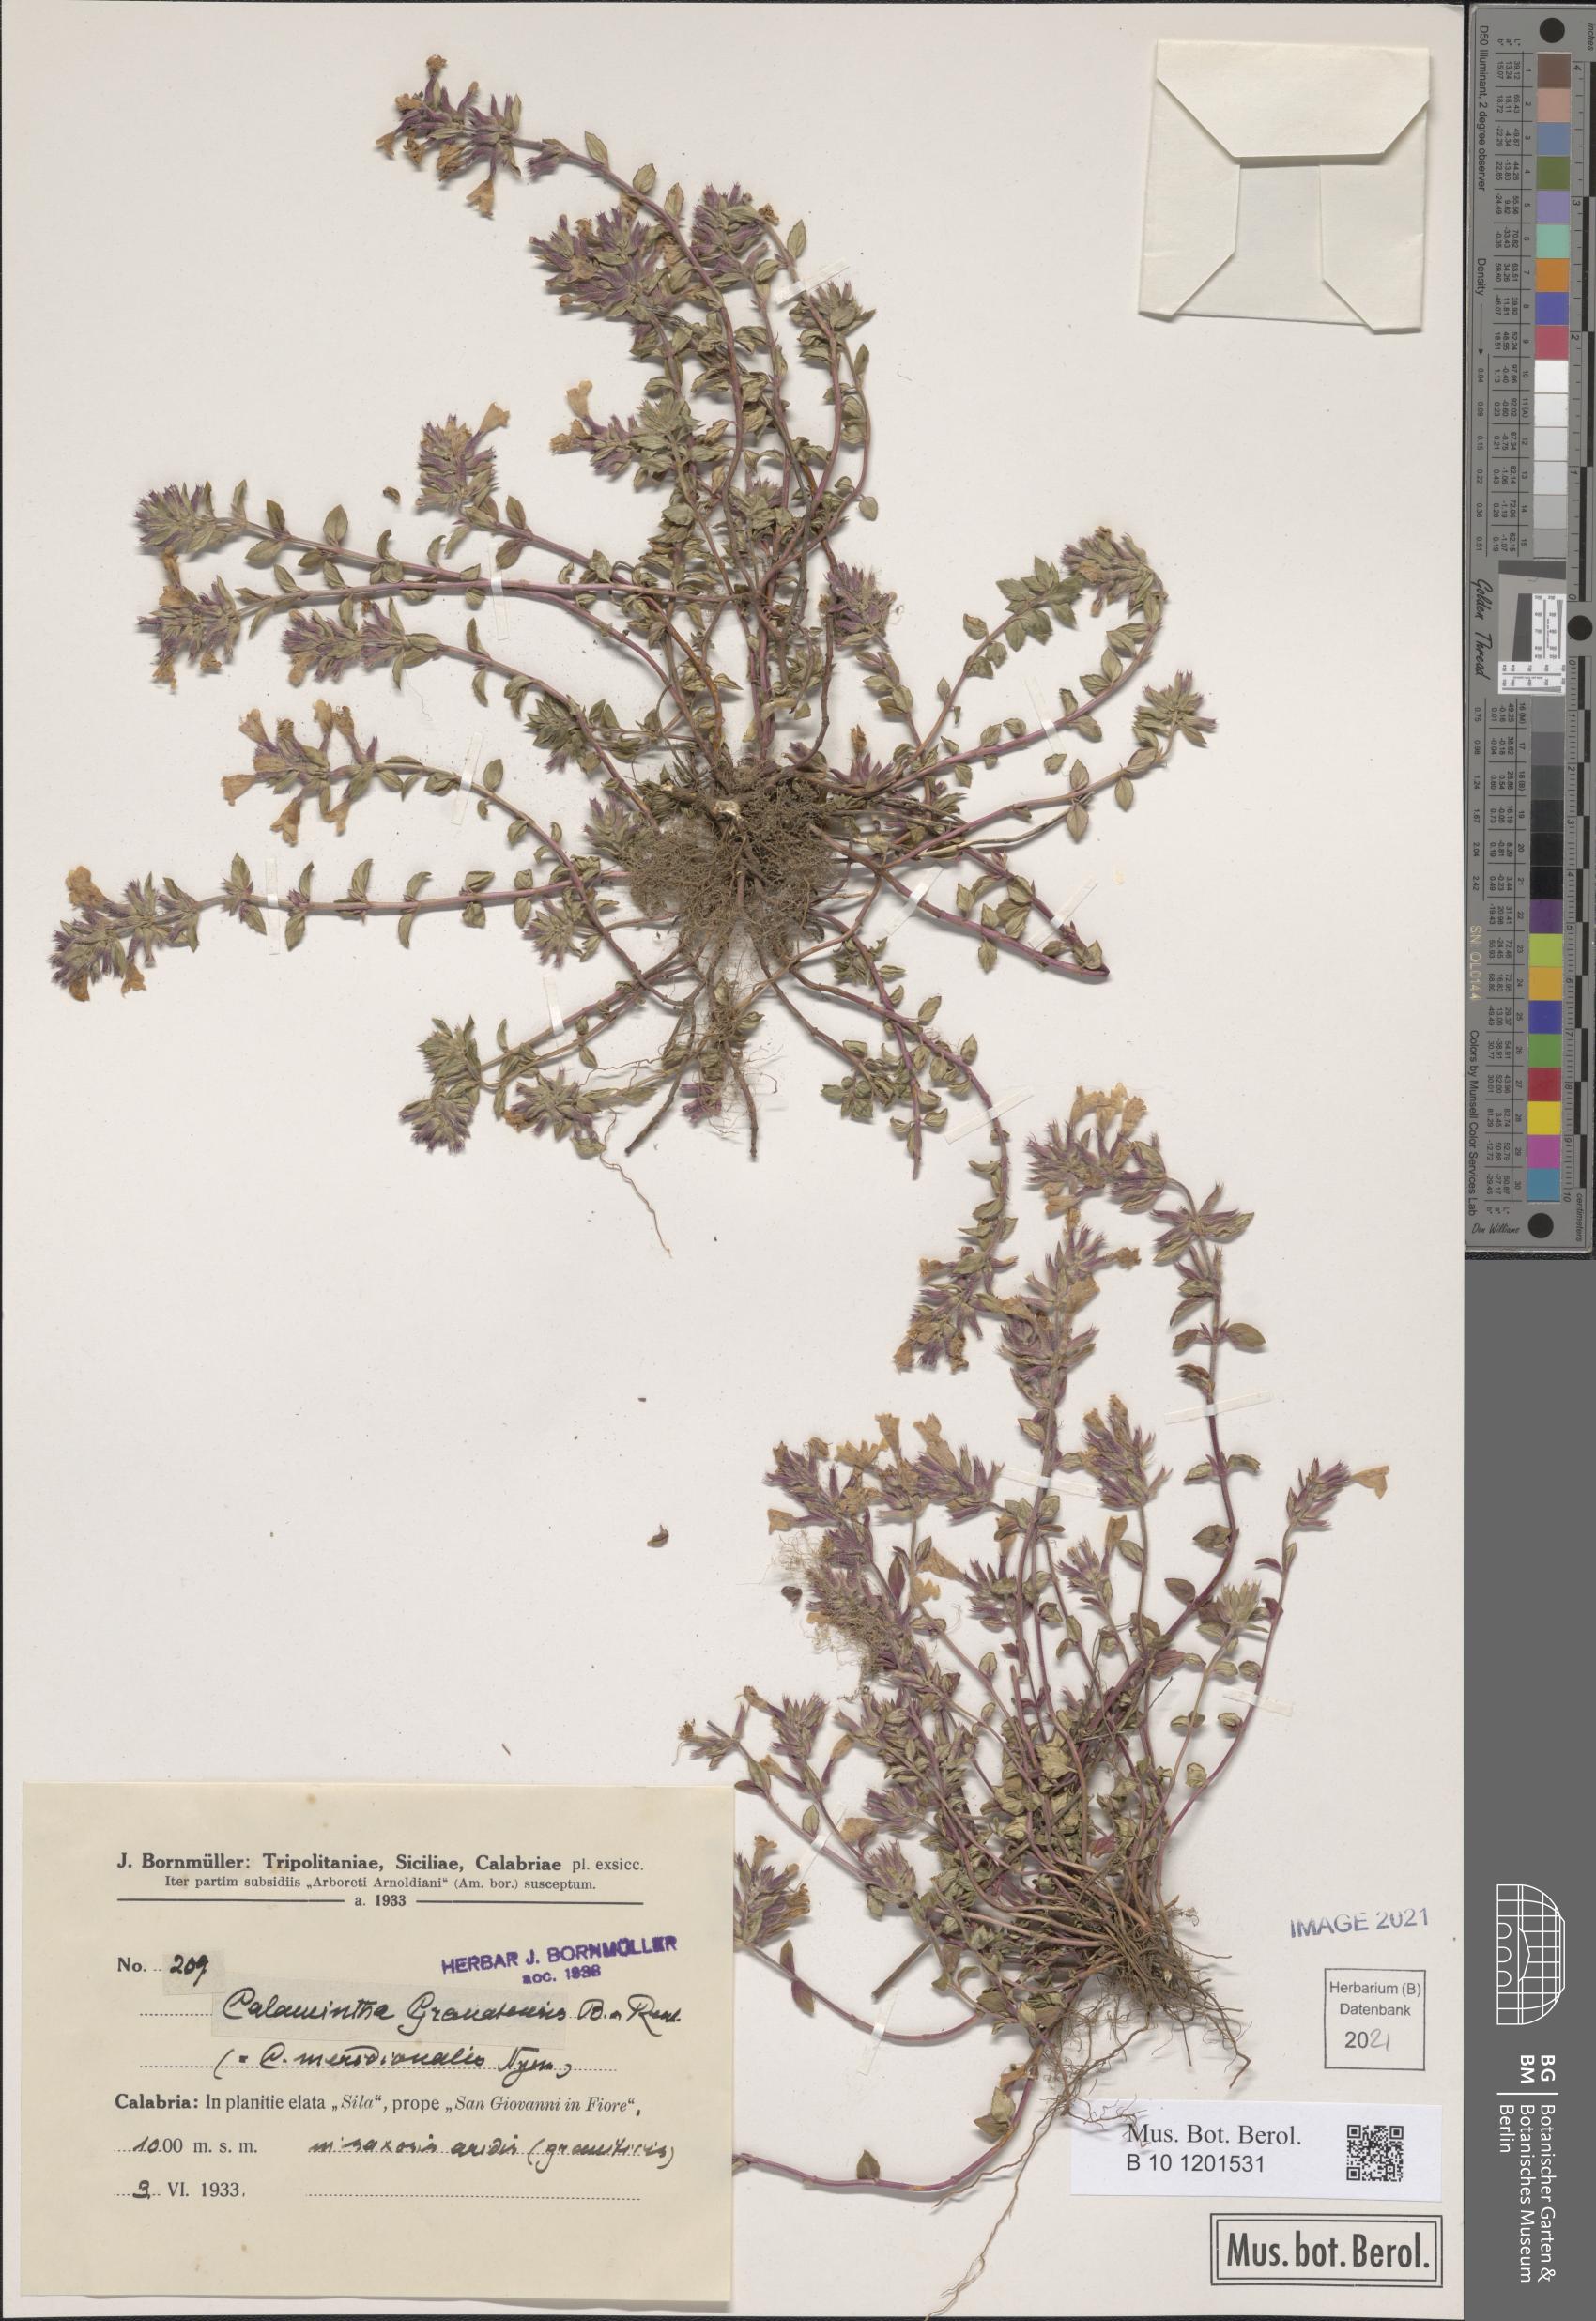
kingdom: Plantae
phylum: Tracheophyta
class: Magnoliopsida
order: Lamiales
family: Lamiaceae
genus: Clinopodium
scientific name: Clinopodium alpinum
